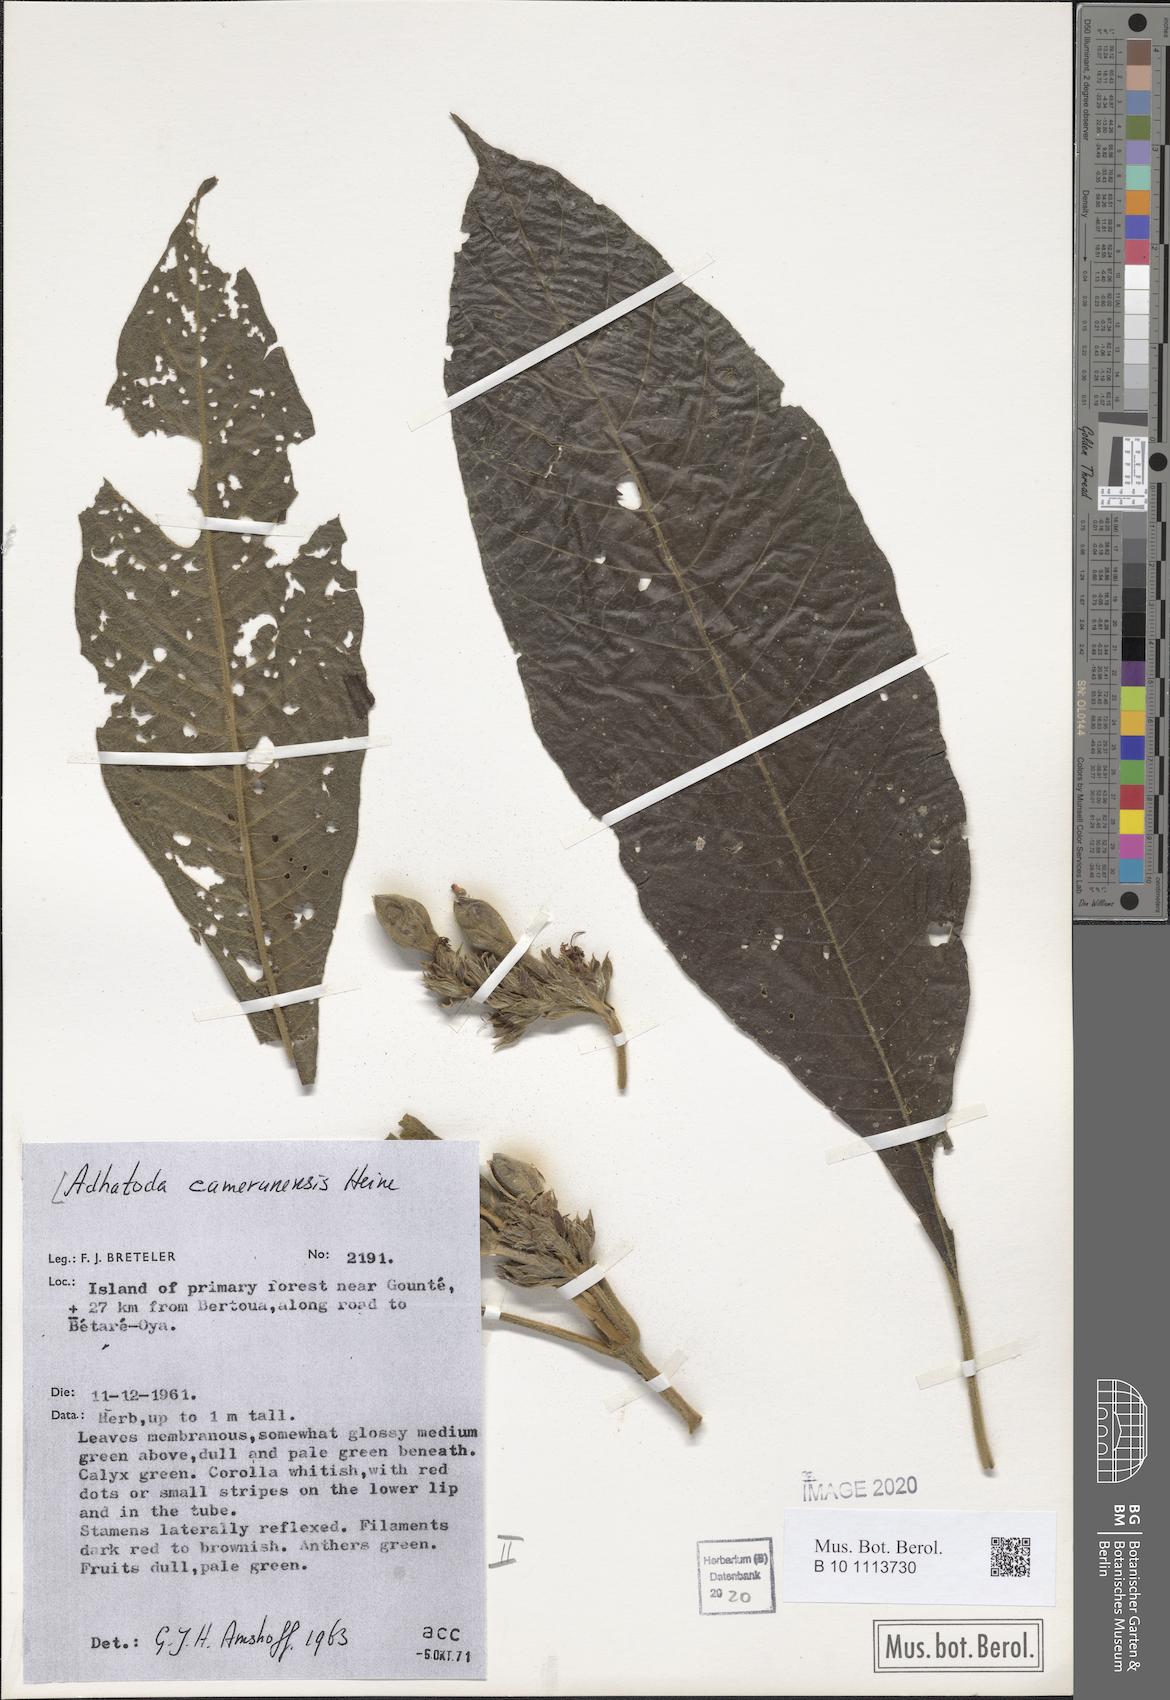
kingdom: Plantae
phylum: Tracheophyta
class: Magnoliopsida
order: Lamiales
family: Acanthaceae
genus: Justicia
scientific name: Justicia camerunensis
